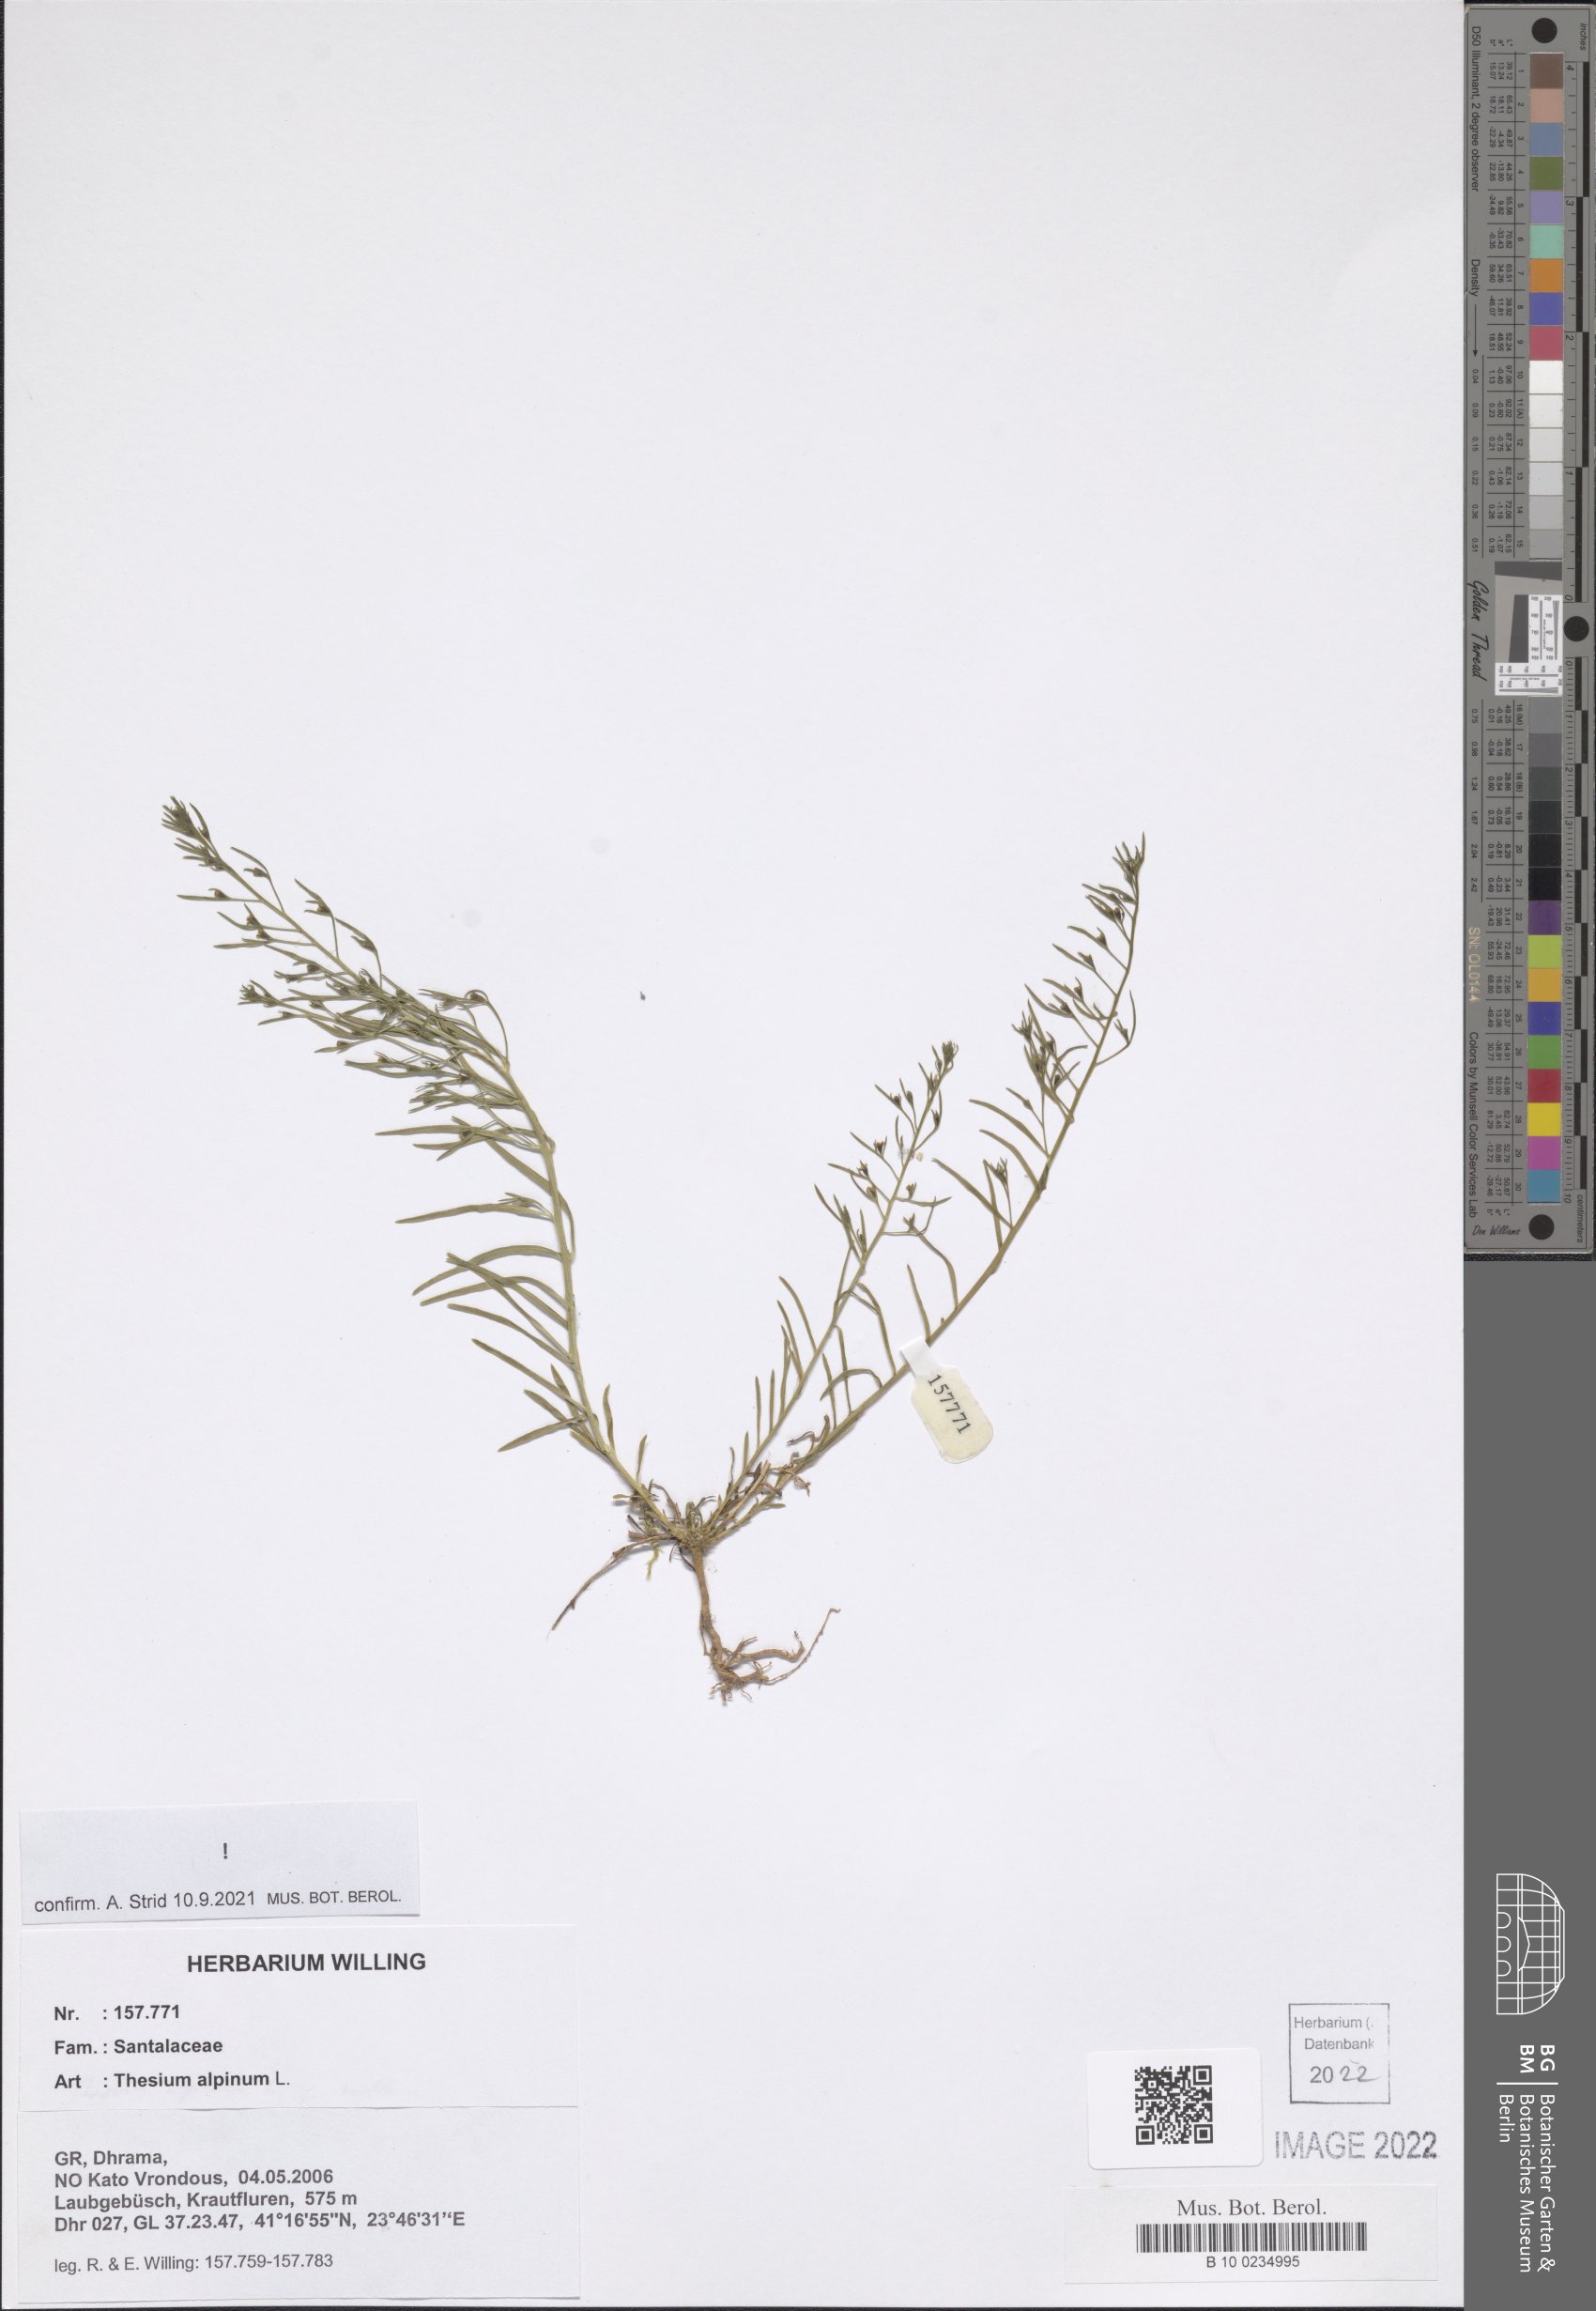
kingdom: Plantae
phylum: Tracheophyta
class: Magnoliopsida
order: Santalales
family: Thesiaceae
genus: Thesium
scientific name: Thesium alpinum
